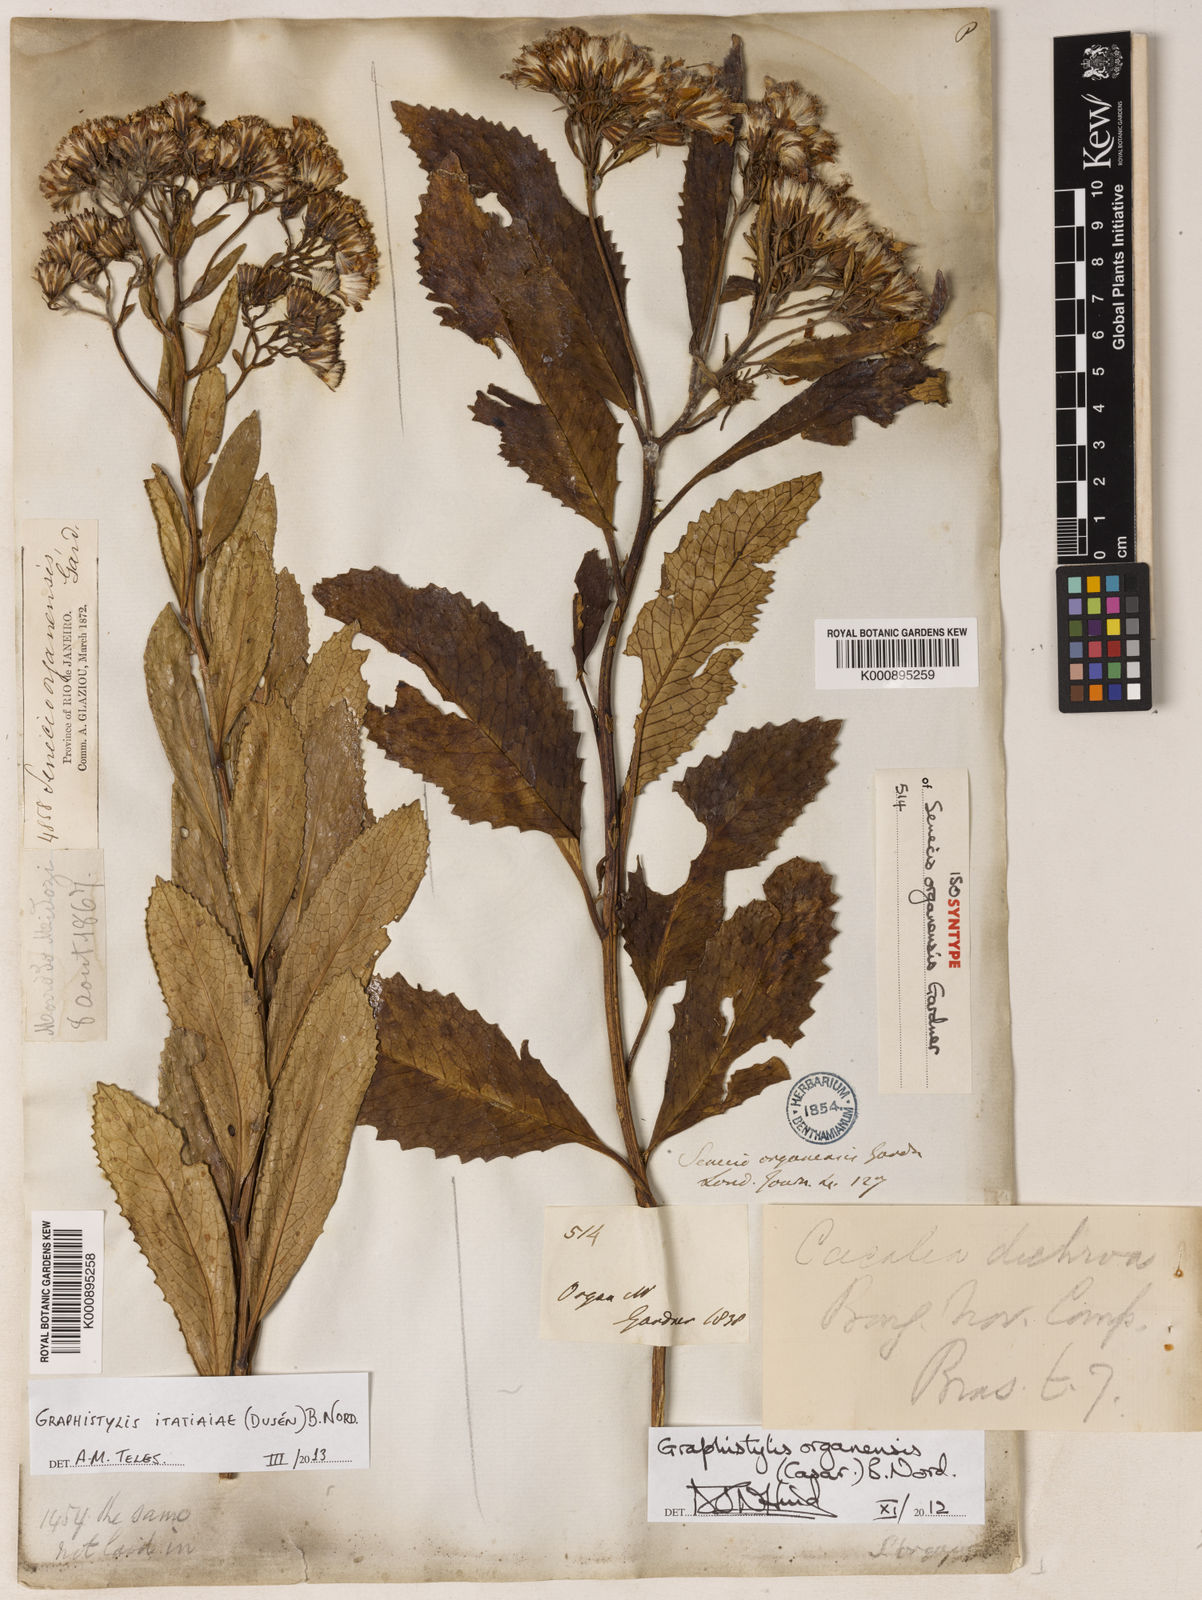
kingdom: Plantae
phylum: Tracheophyta
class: Magnoliopsida
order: Asterales
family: Asteraceae
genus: Graphistylis
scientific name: Graphistylis organensis
